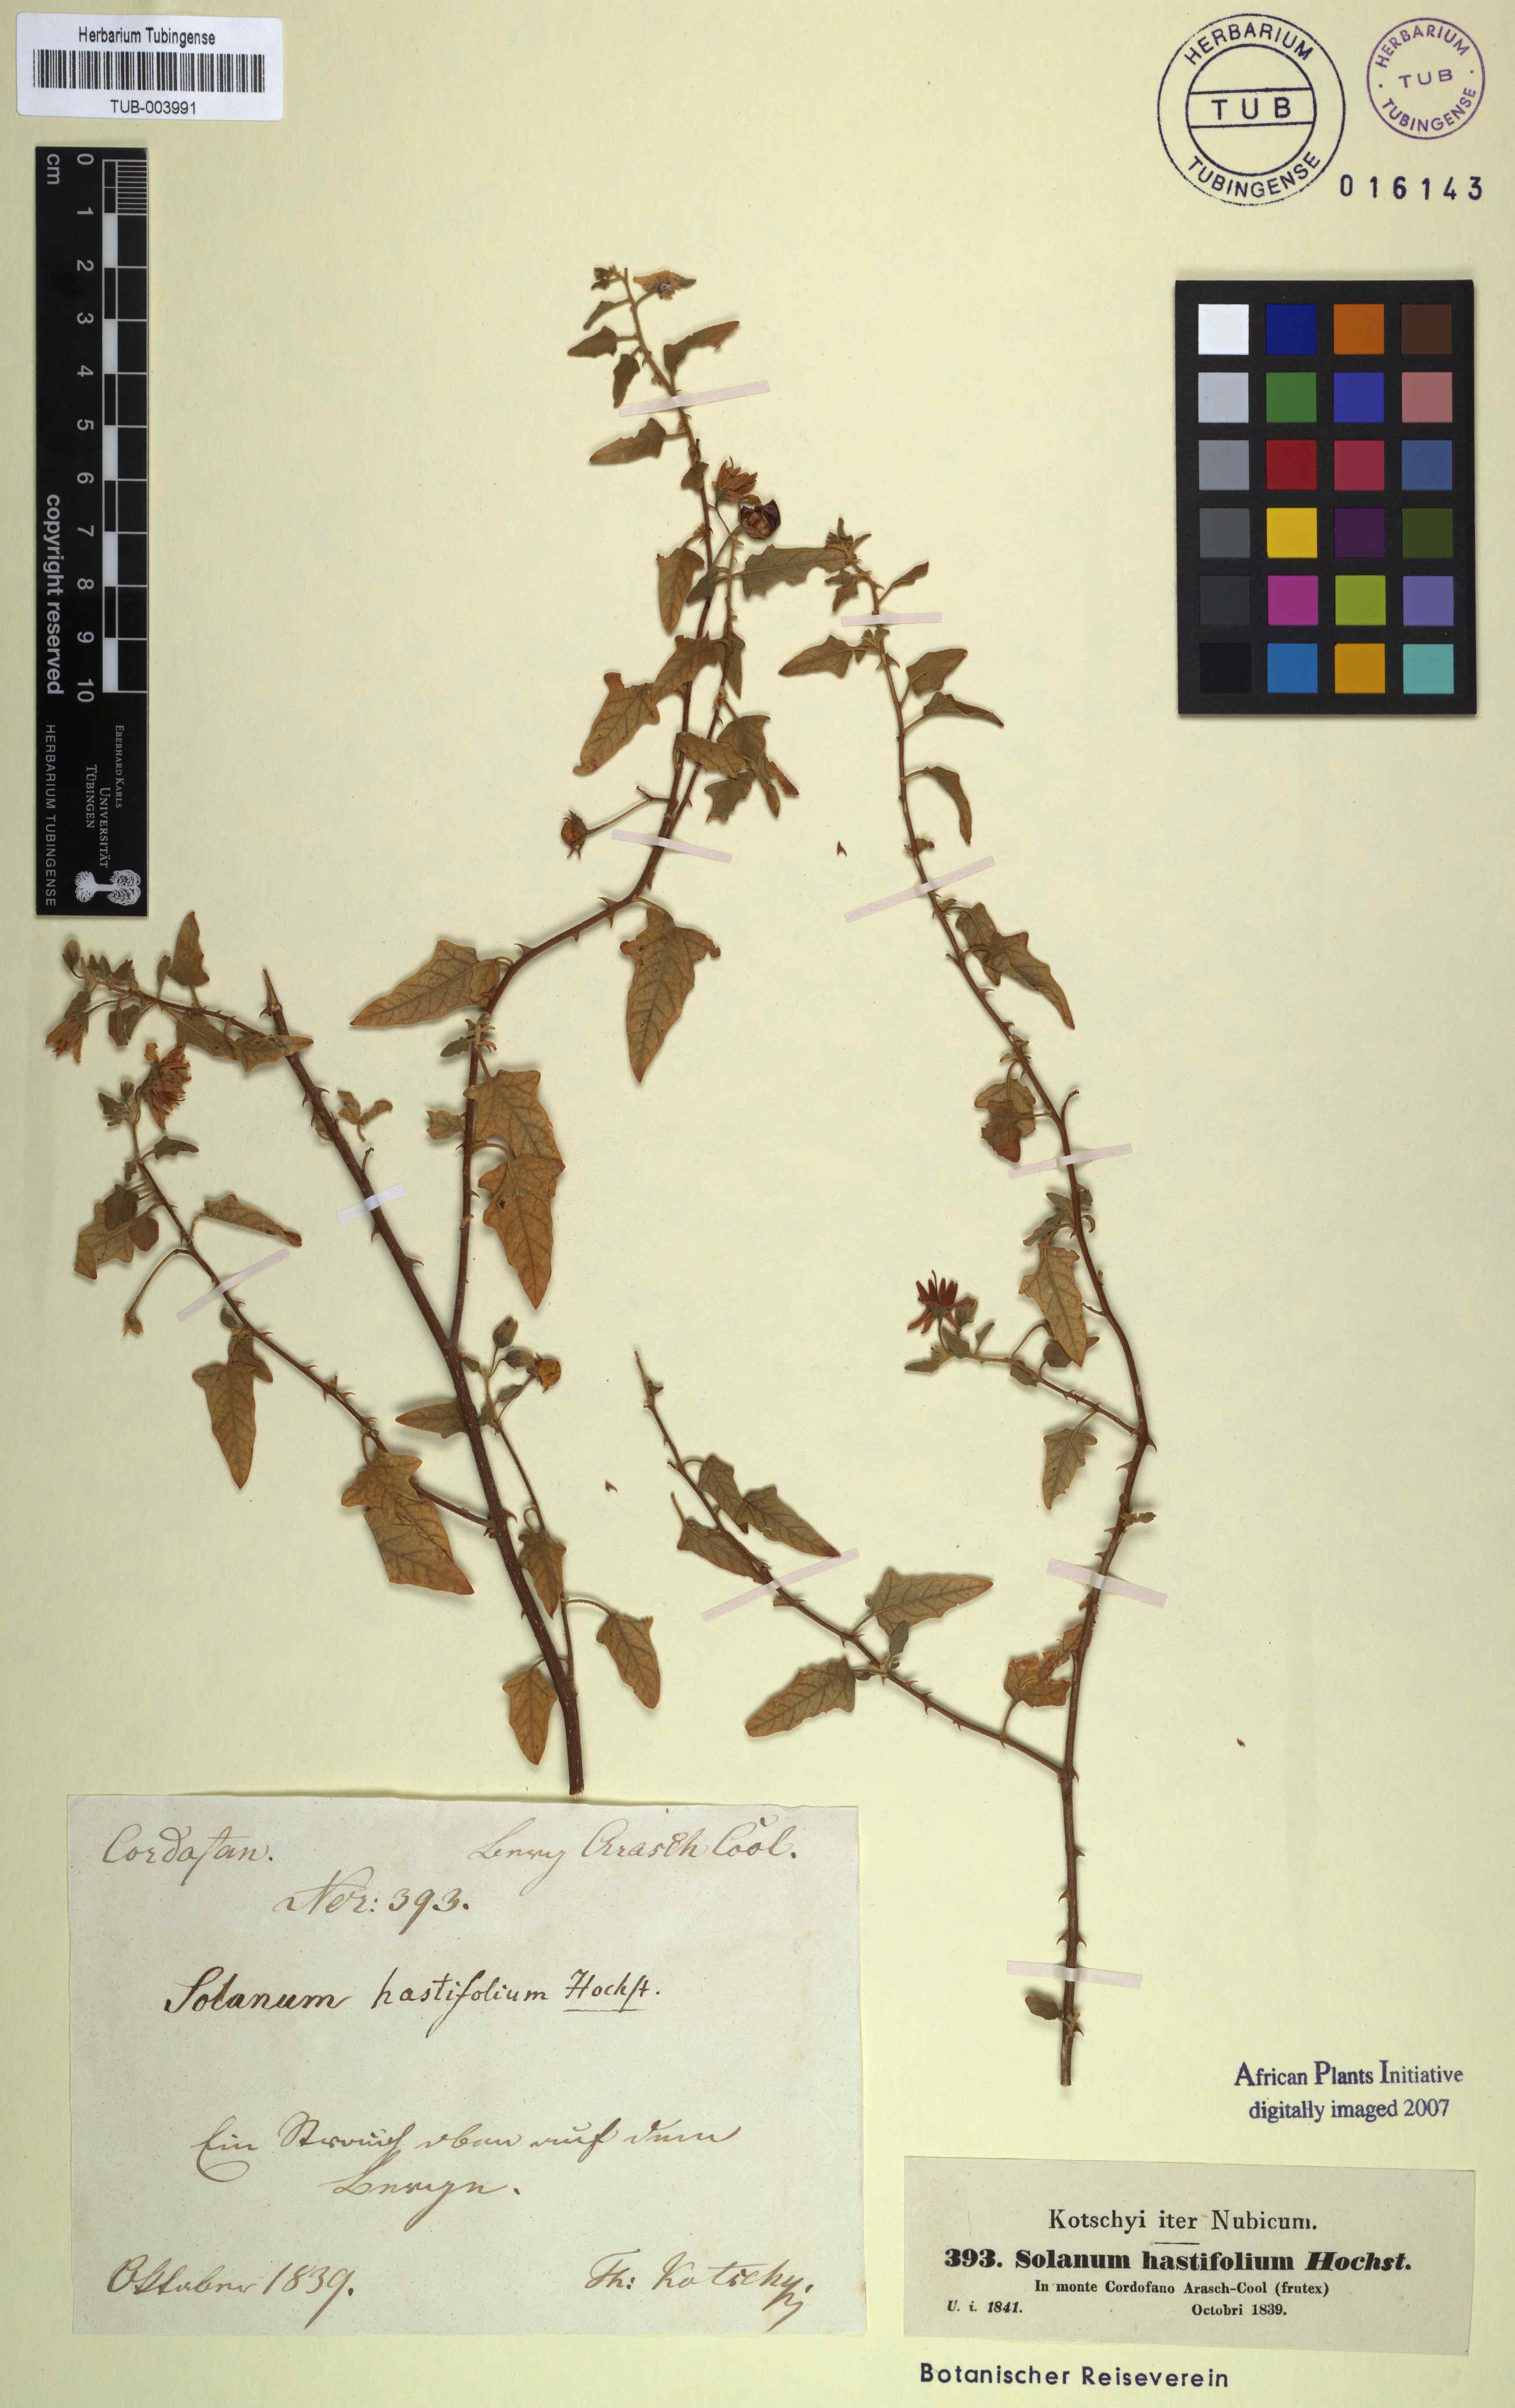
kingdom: Plantae
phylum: Tracheophyta
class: Magnoliopsida
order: Solanales
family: Solanaceae
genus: Solanum
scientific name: Solanum hastifolium
